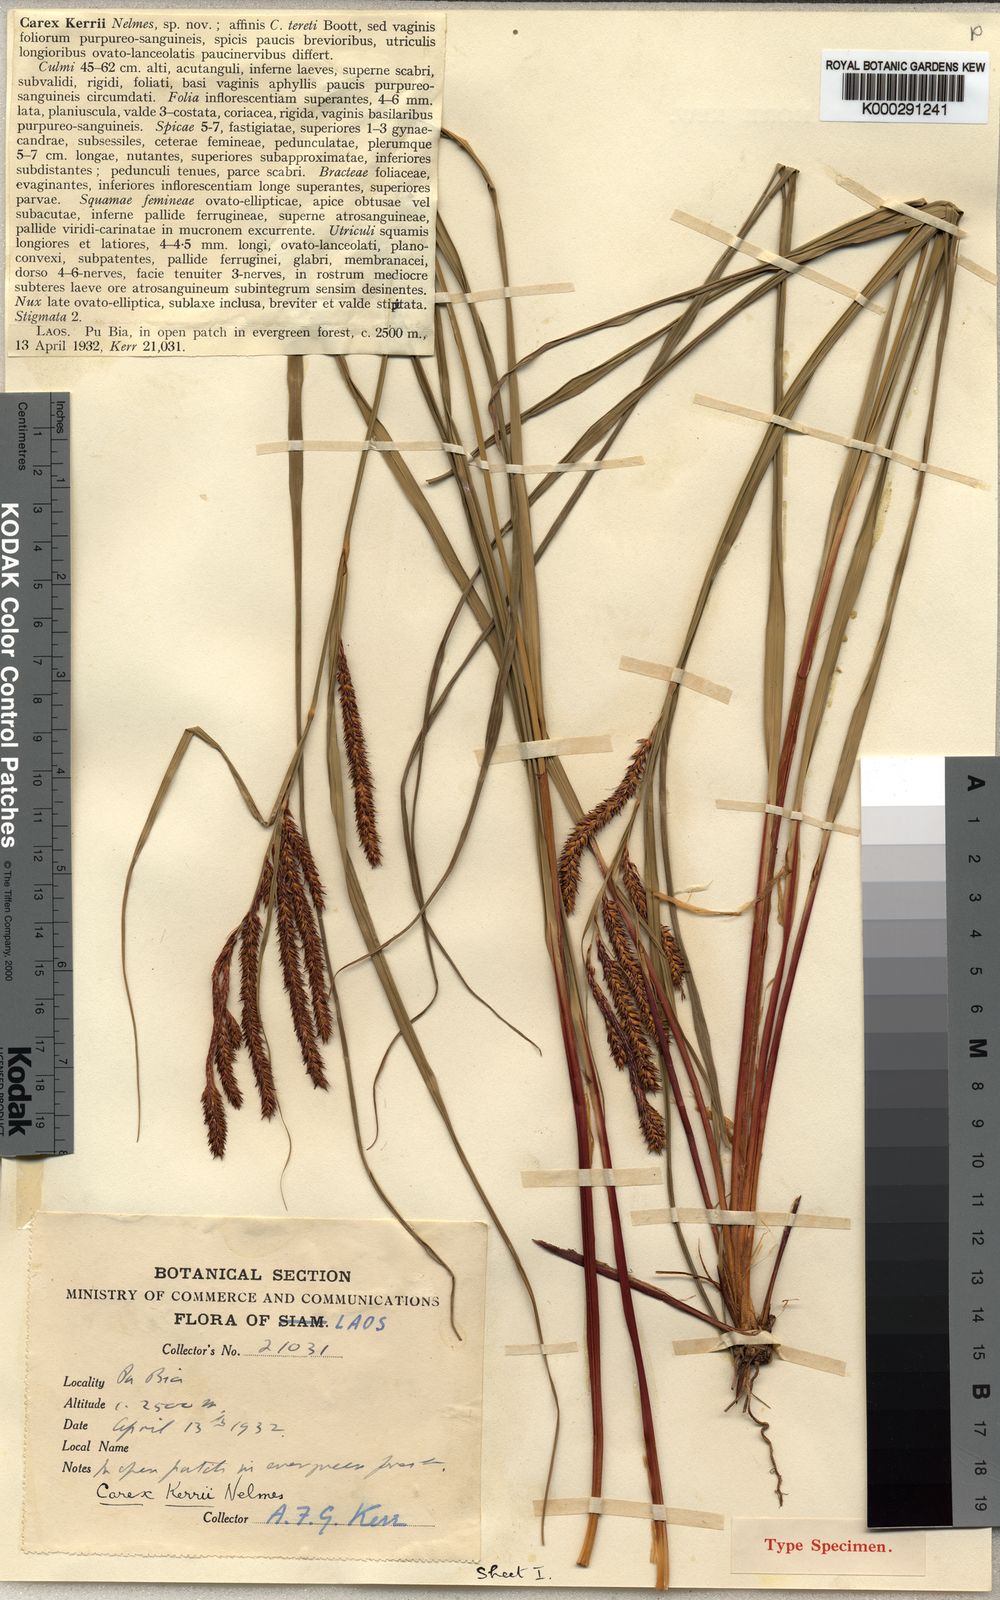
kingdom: Plantae
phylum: Tracheophyta
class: Liliopsida
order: Poales
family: Cyperaceae
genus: Carex
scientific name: Carex teres
